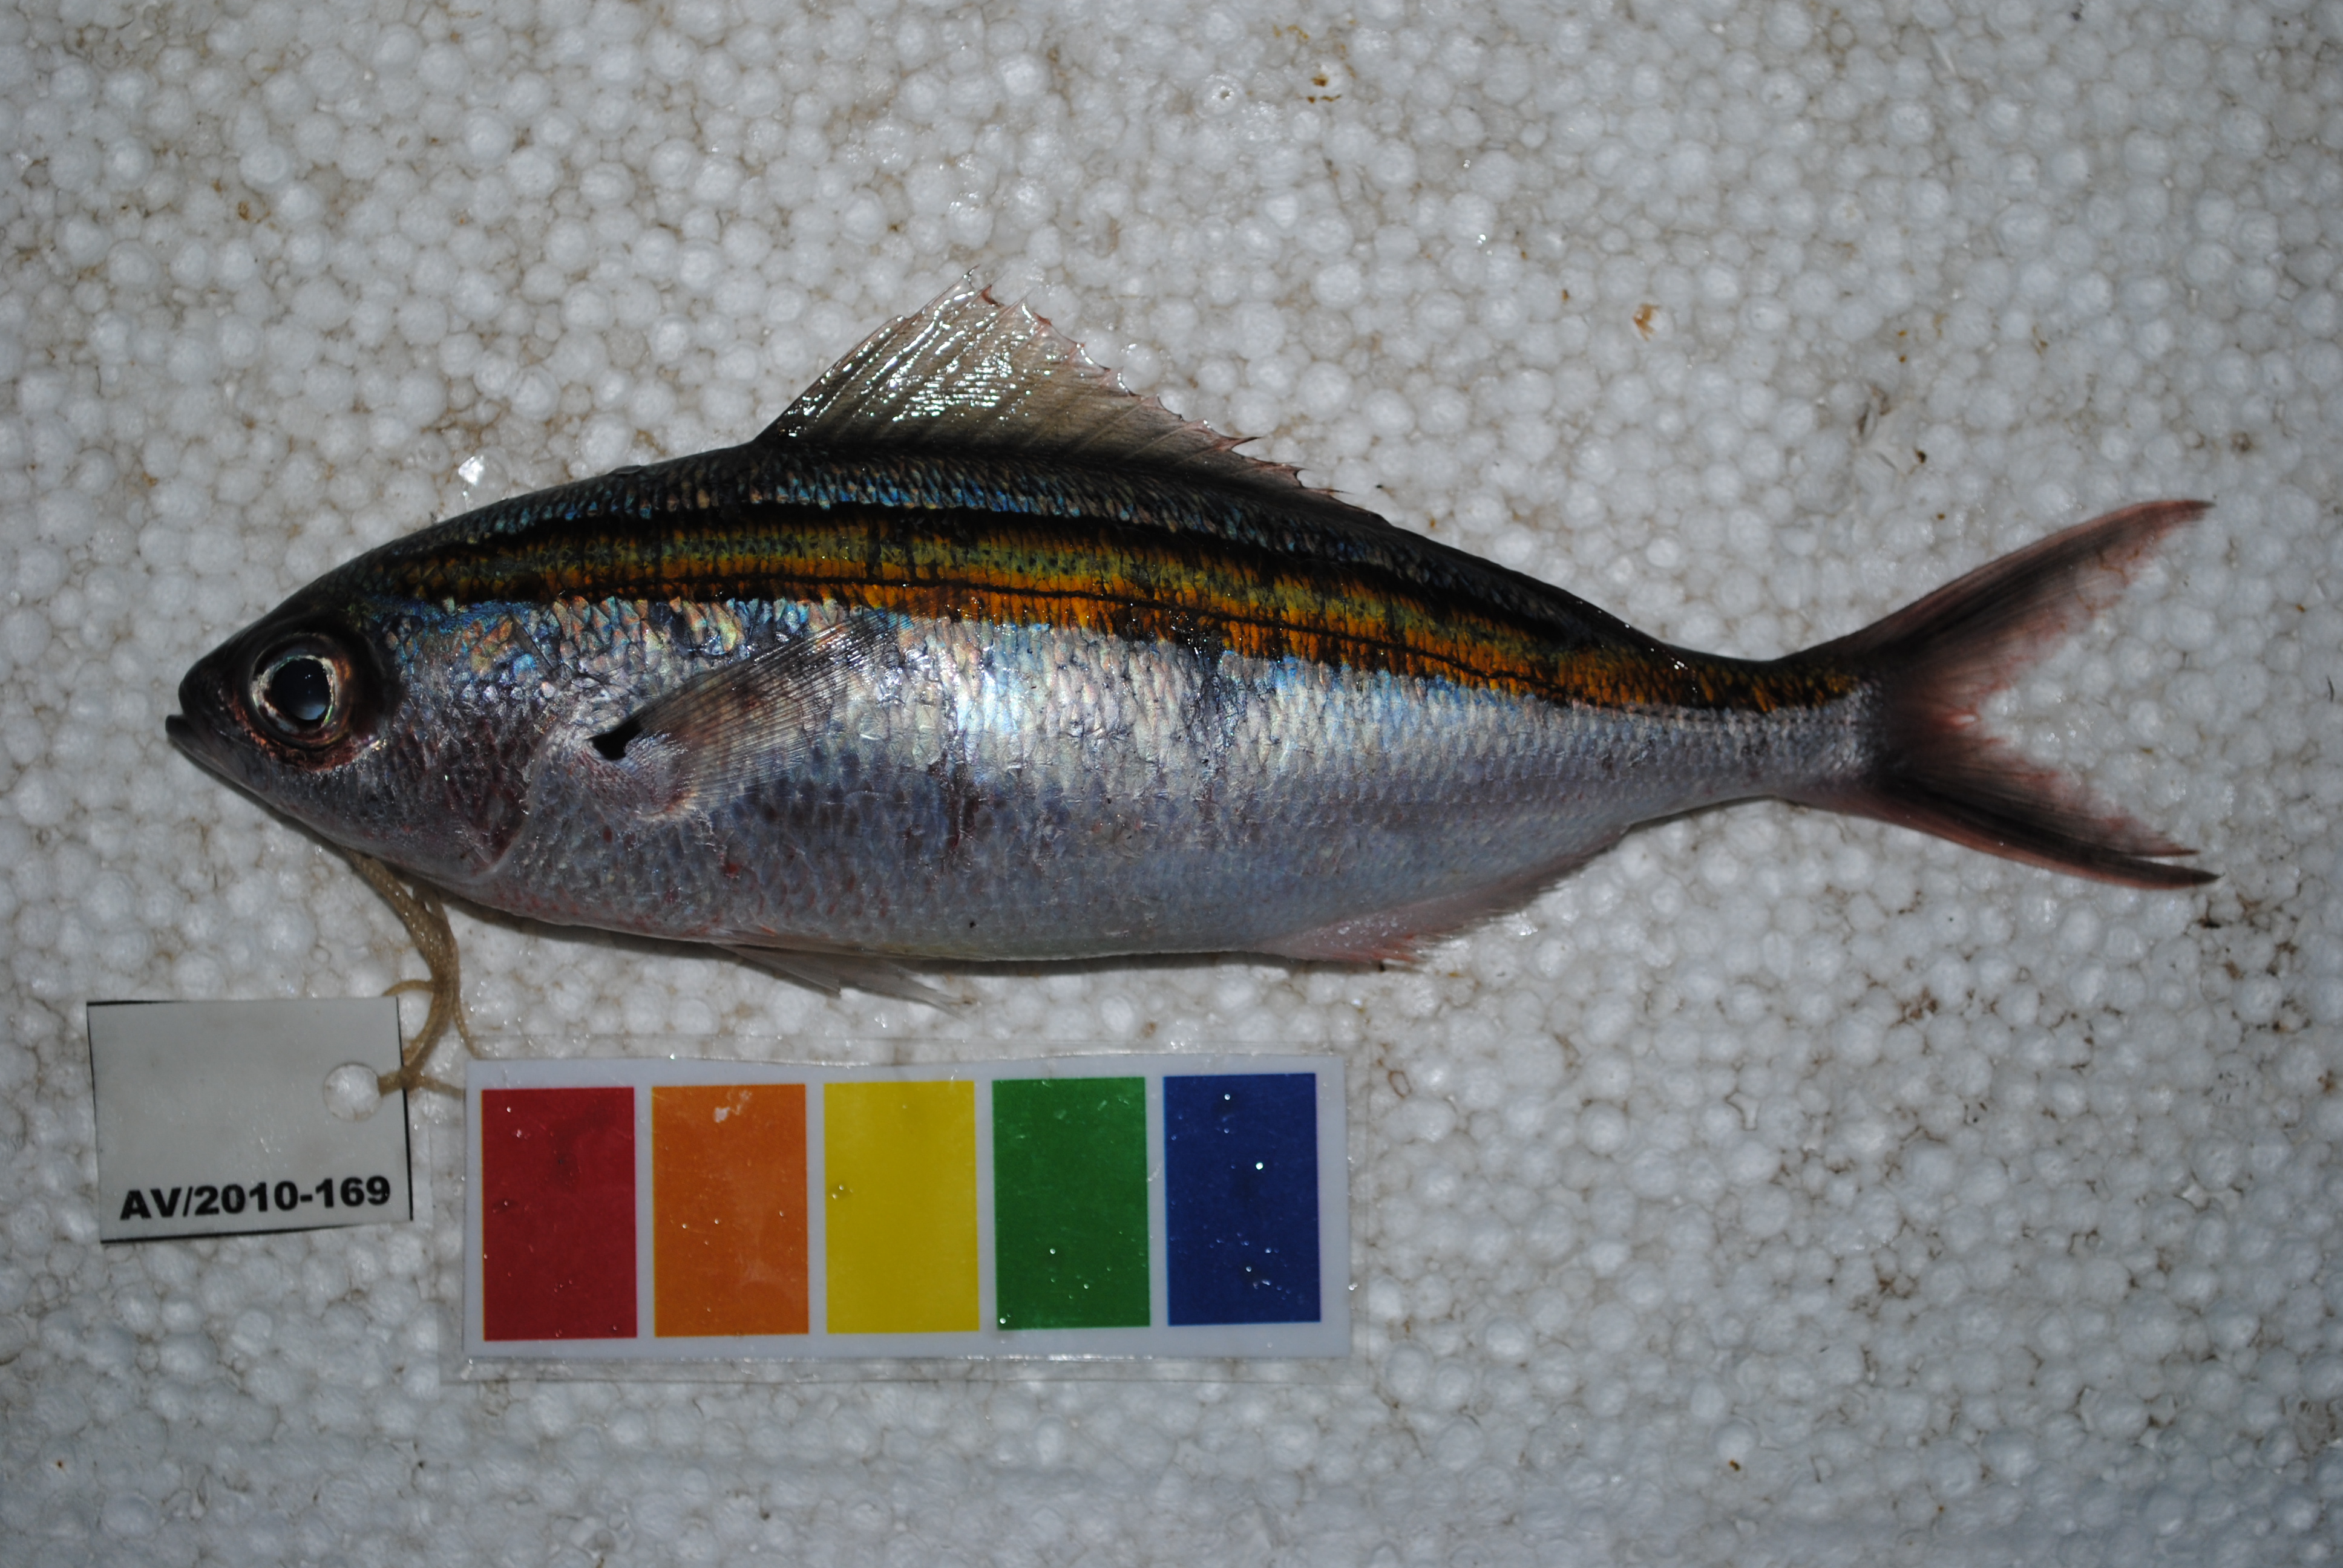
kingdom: Animalia
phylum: Chordata
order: Perciformes
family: Caesionidae
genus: Caesio
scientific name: Caesio xanthalytos
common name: Goldsash fusilier
